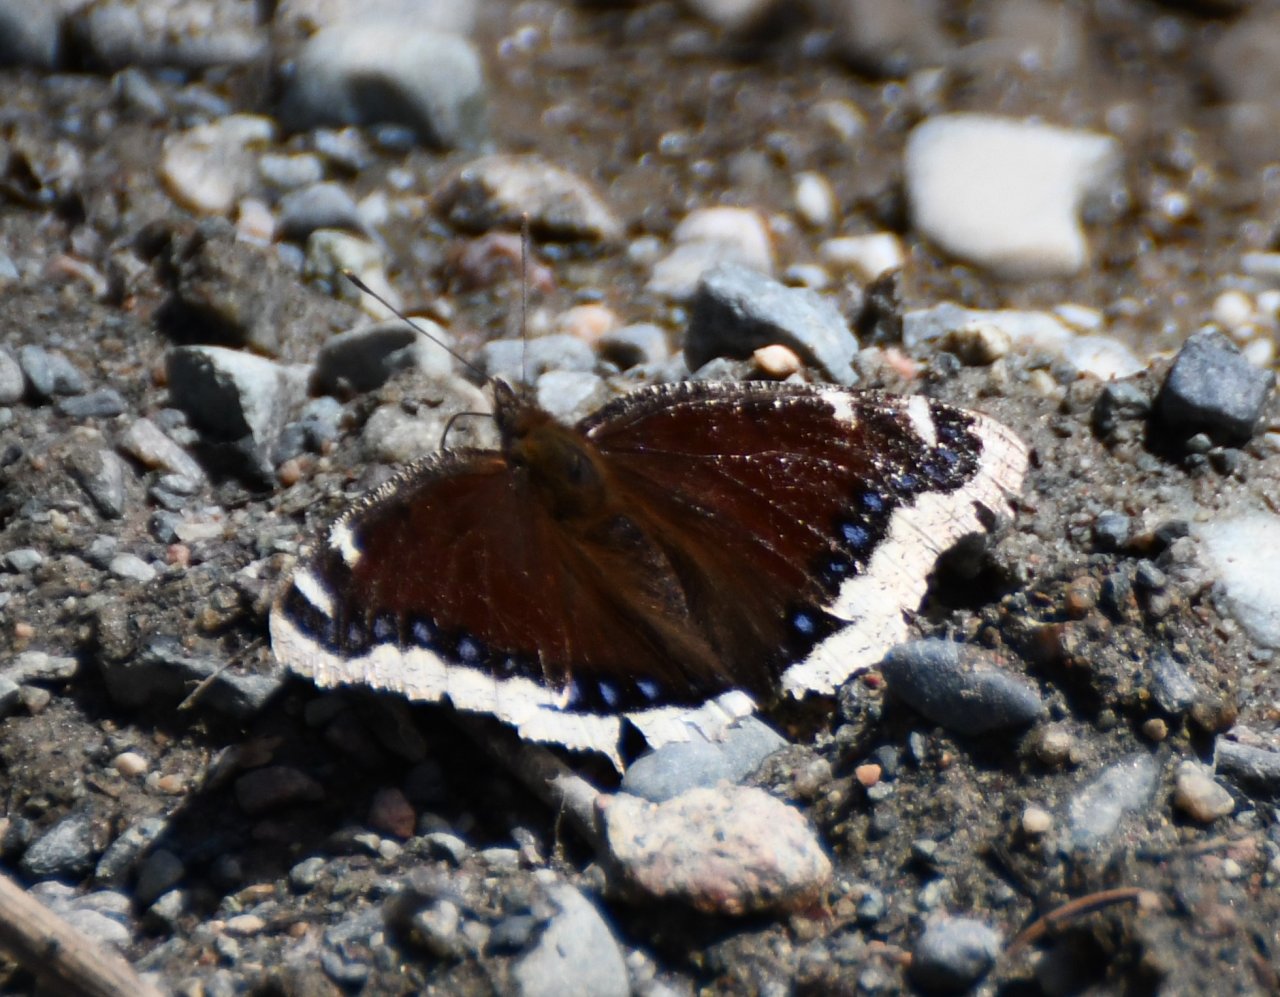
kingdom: Animalia
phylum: Arthropoda
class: Insecta
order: Lepidoptera
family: Nymphalidae
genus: Nymphalis
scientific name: Nymphalis antiopa
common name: Mourning Cloak
